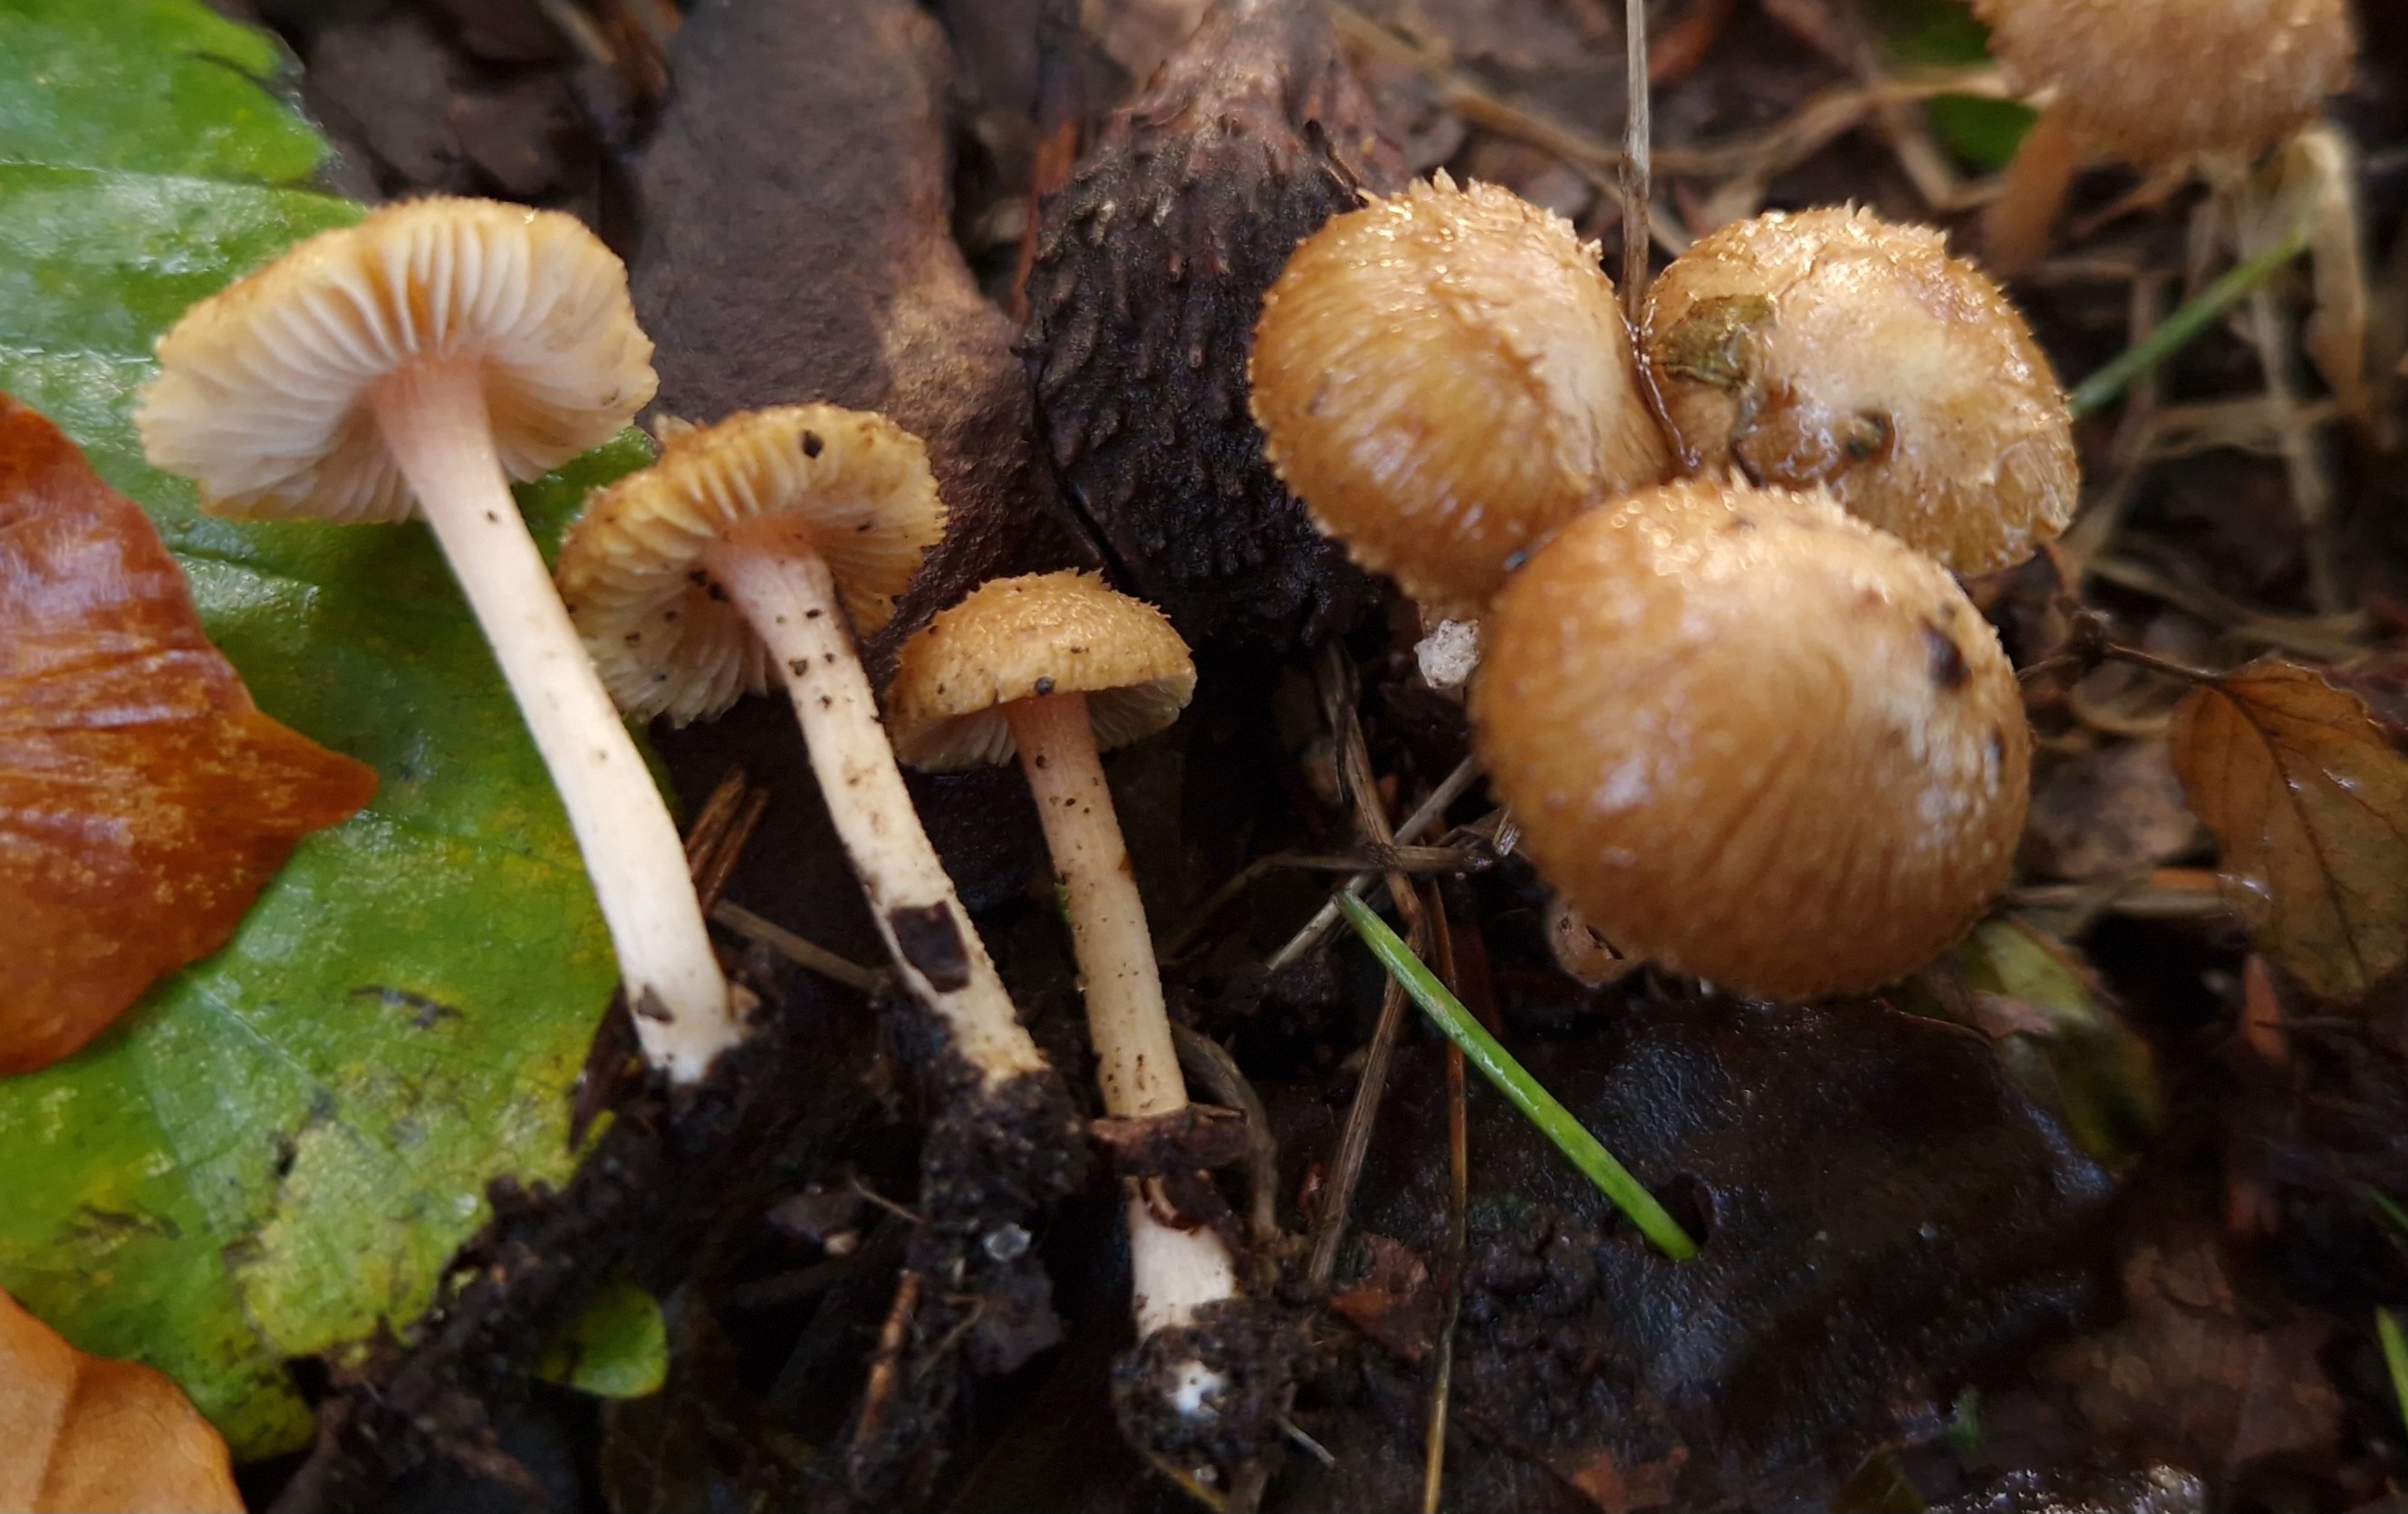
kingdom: Fungi
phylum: Basidiomycota
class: Agaricomycetes
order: Agaricales
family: Inocybaceae
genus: Inocybe
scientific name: Inocybe hirtella
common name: mandel-trævlhat
